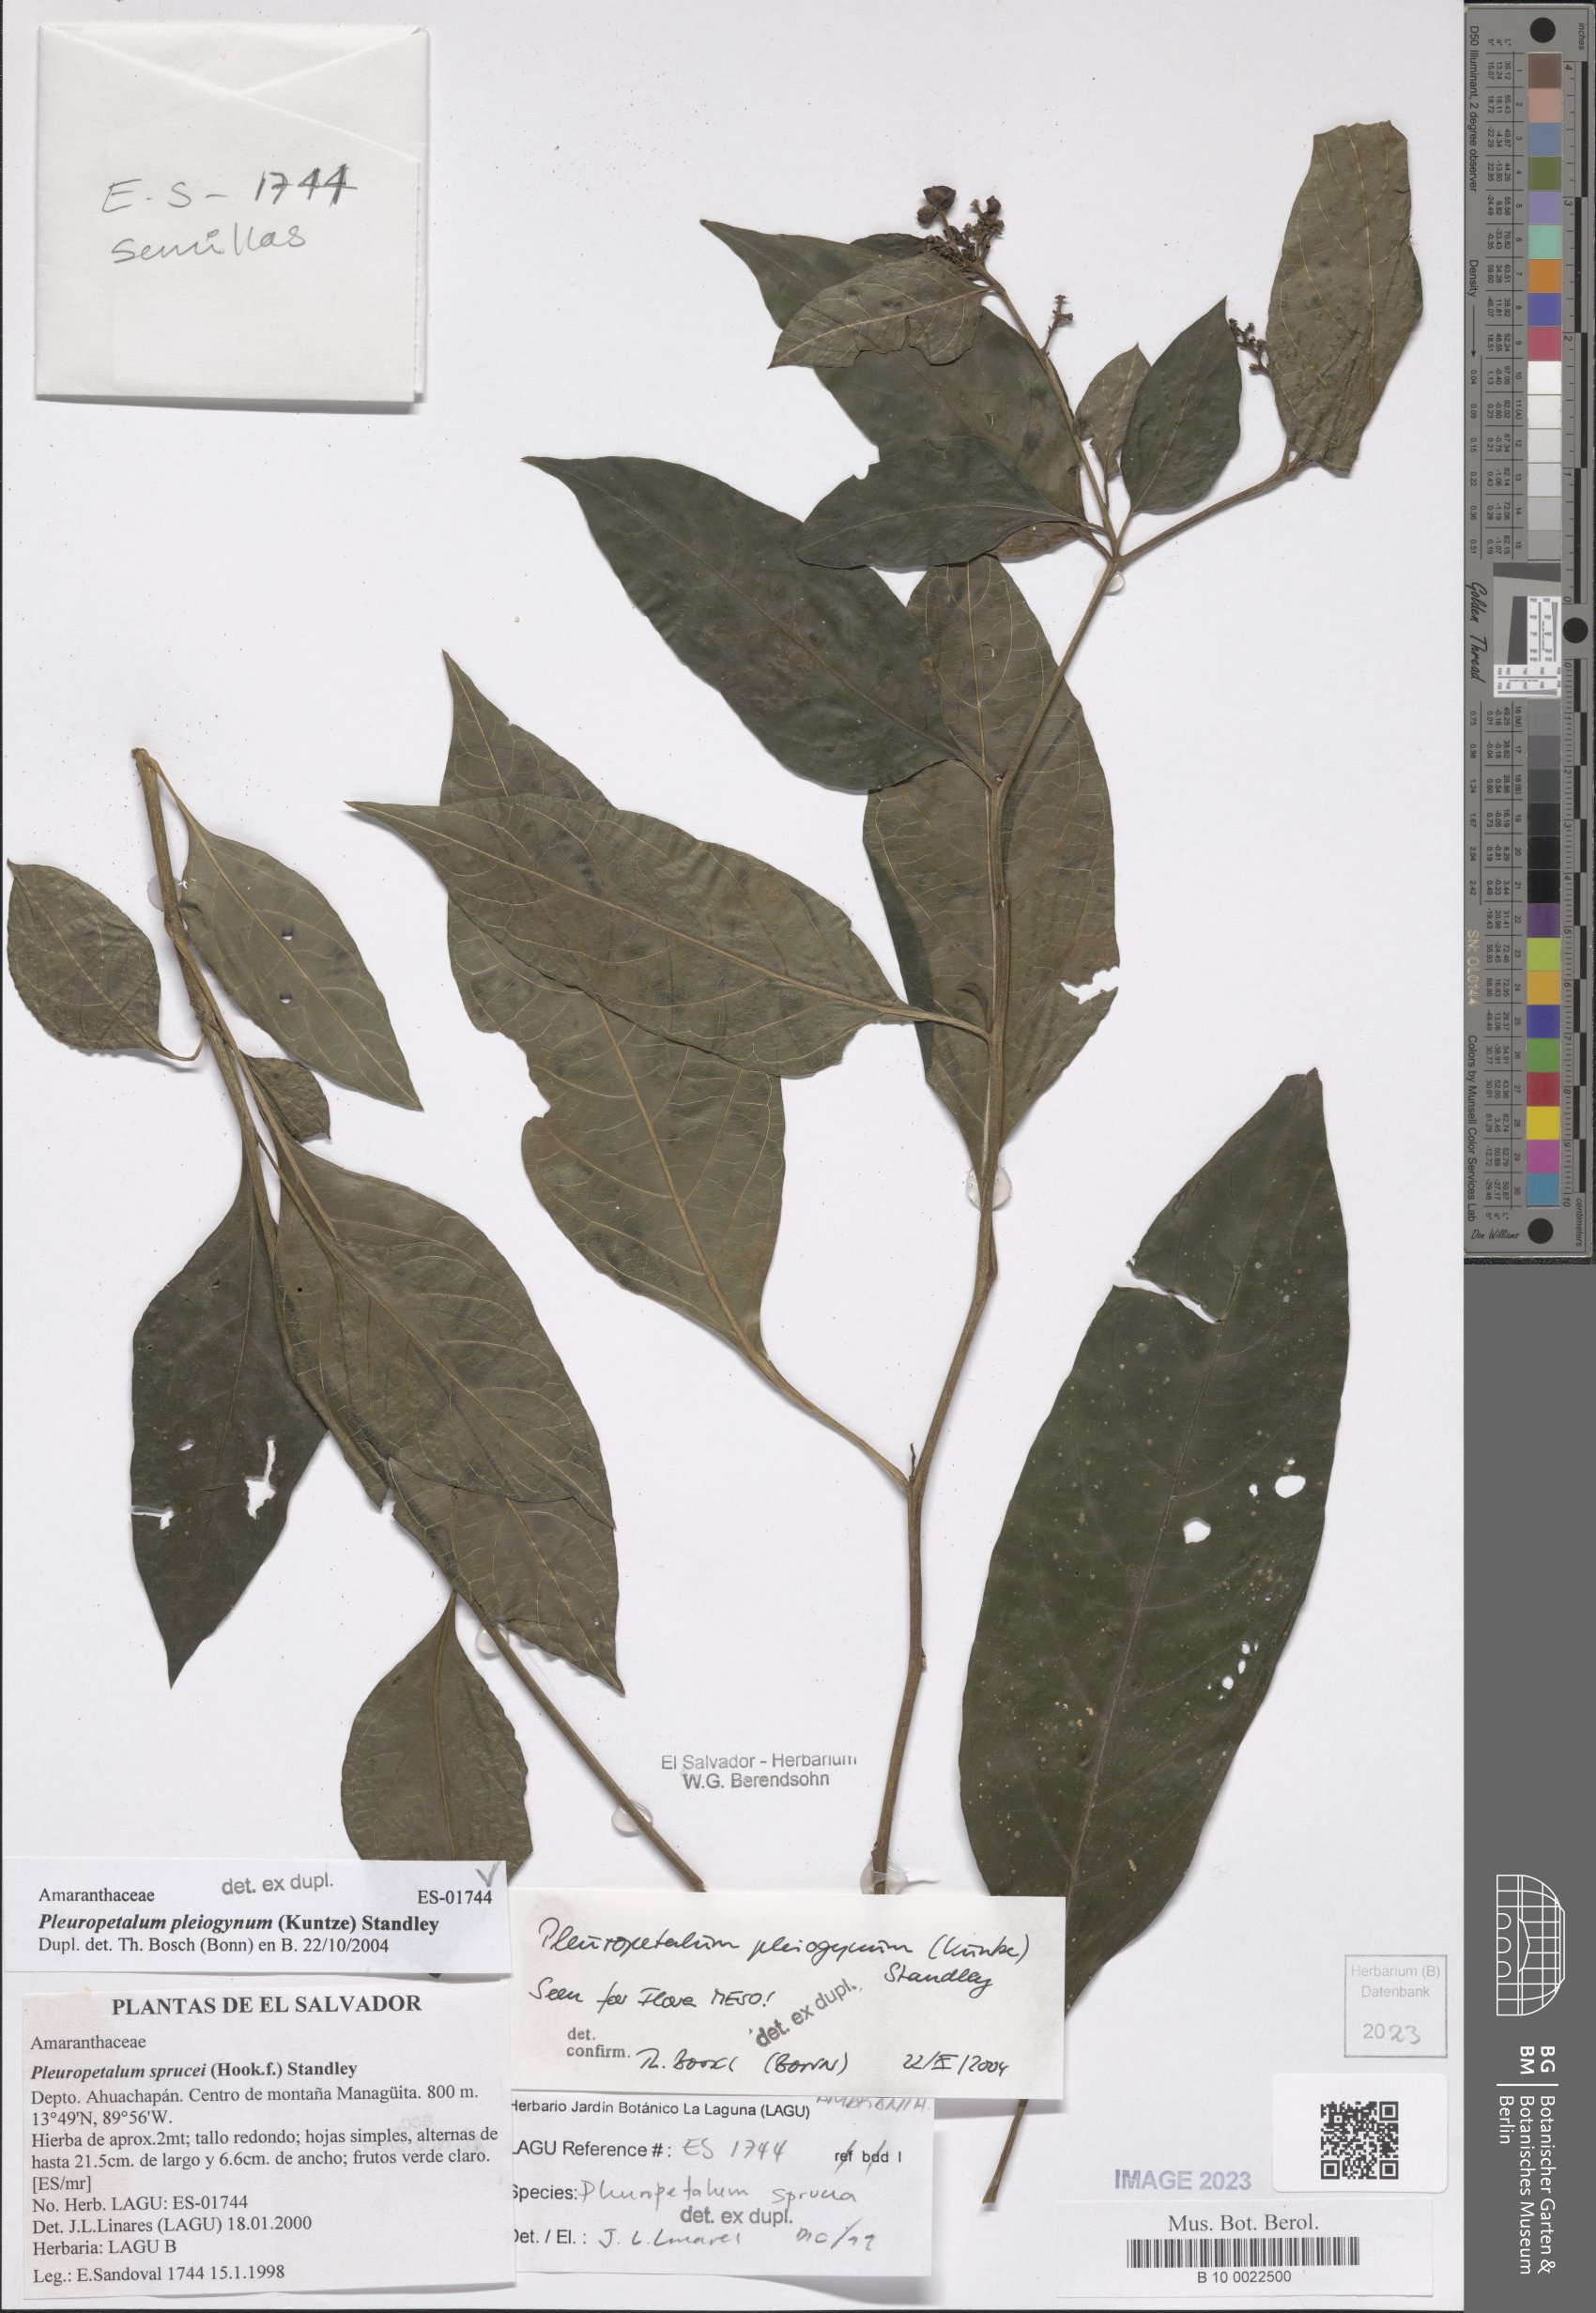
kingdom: Plantae
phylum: Tracheophyta
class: Magnoliopsida
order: Caryophyllales
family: Amaranthaceae
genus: Pleuropetalum
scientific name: Pleuropetalum pleiogynum
